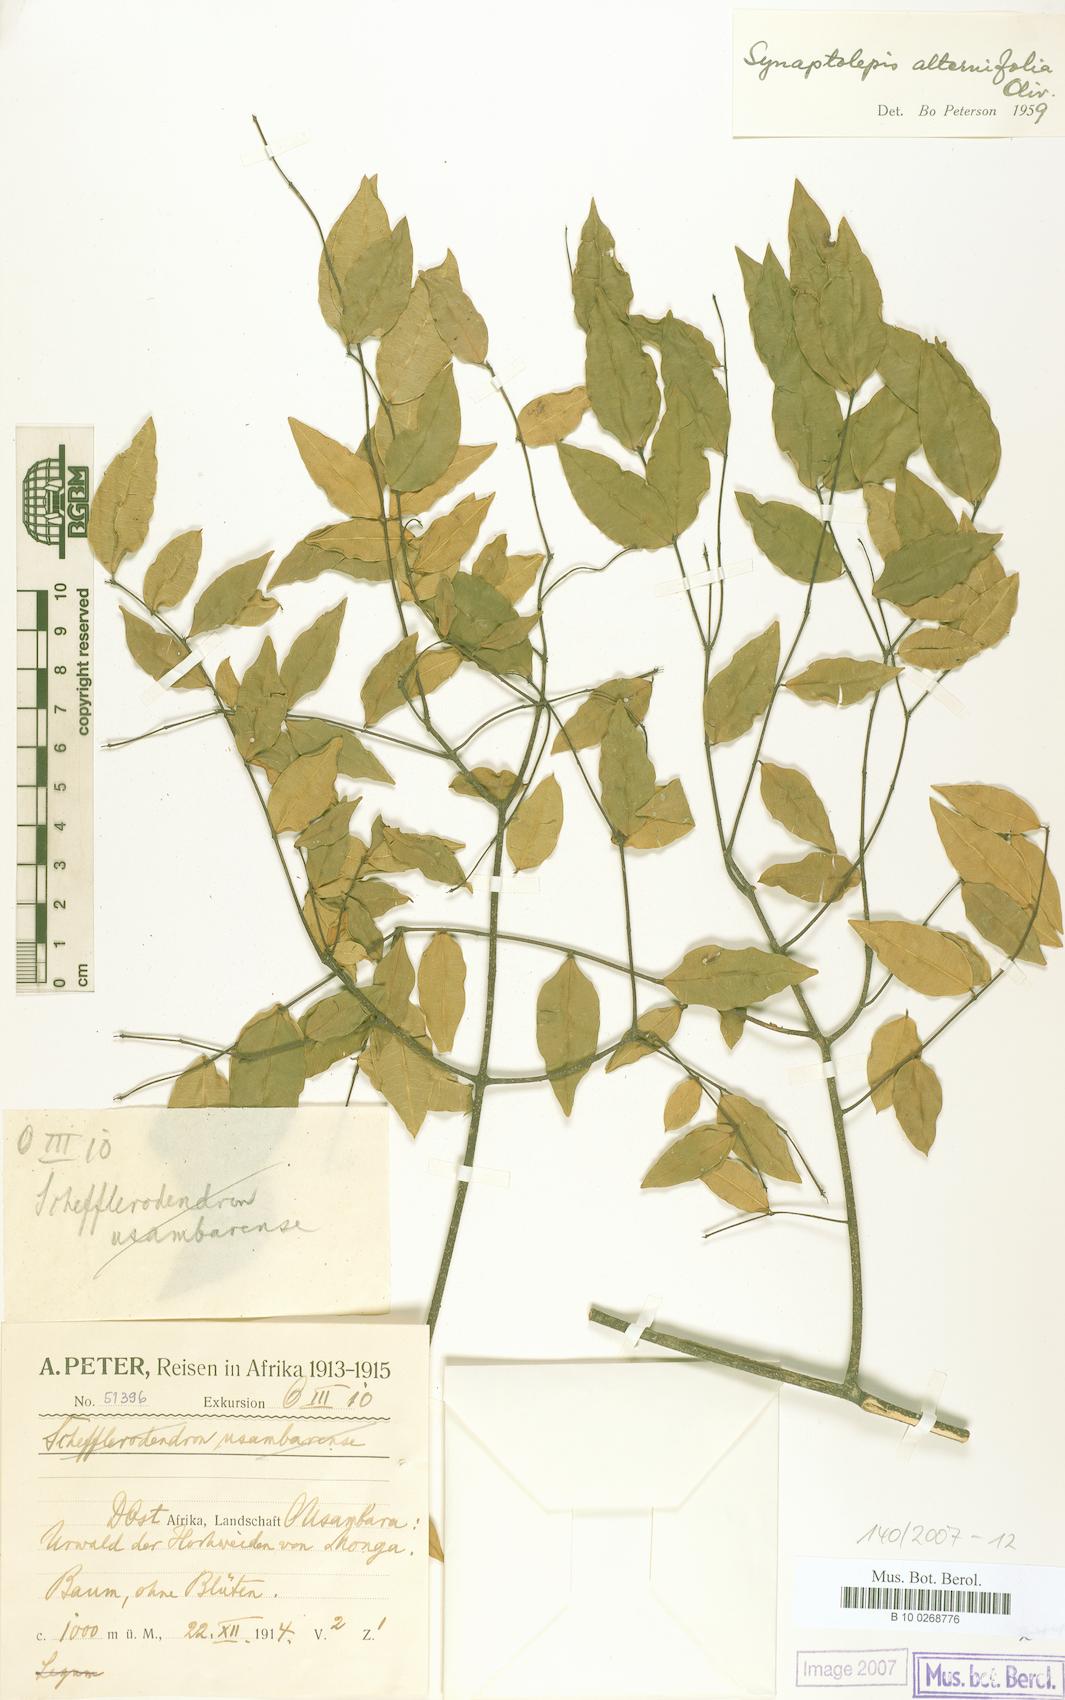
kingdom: Plantae
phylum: Tracheophyta
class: Magnoliopsida
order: Malvales
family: Thymelaeaceae
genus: Synaptolepis
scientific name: Synaptolepis alternifolia
